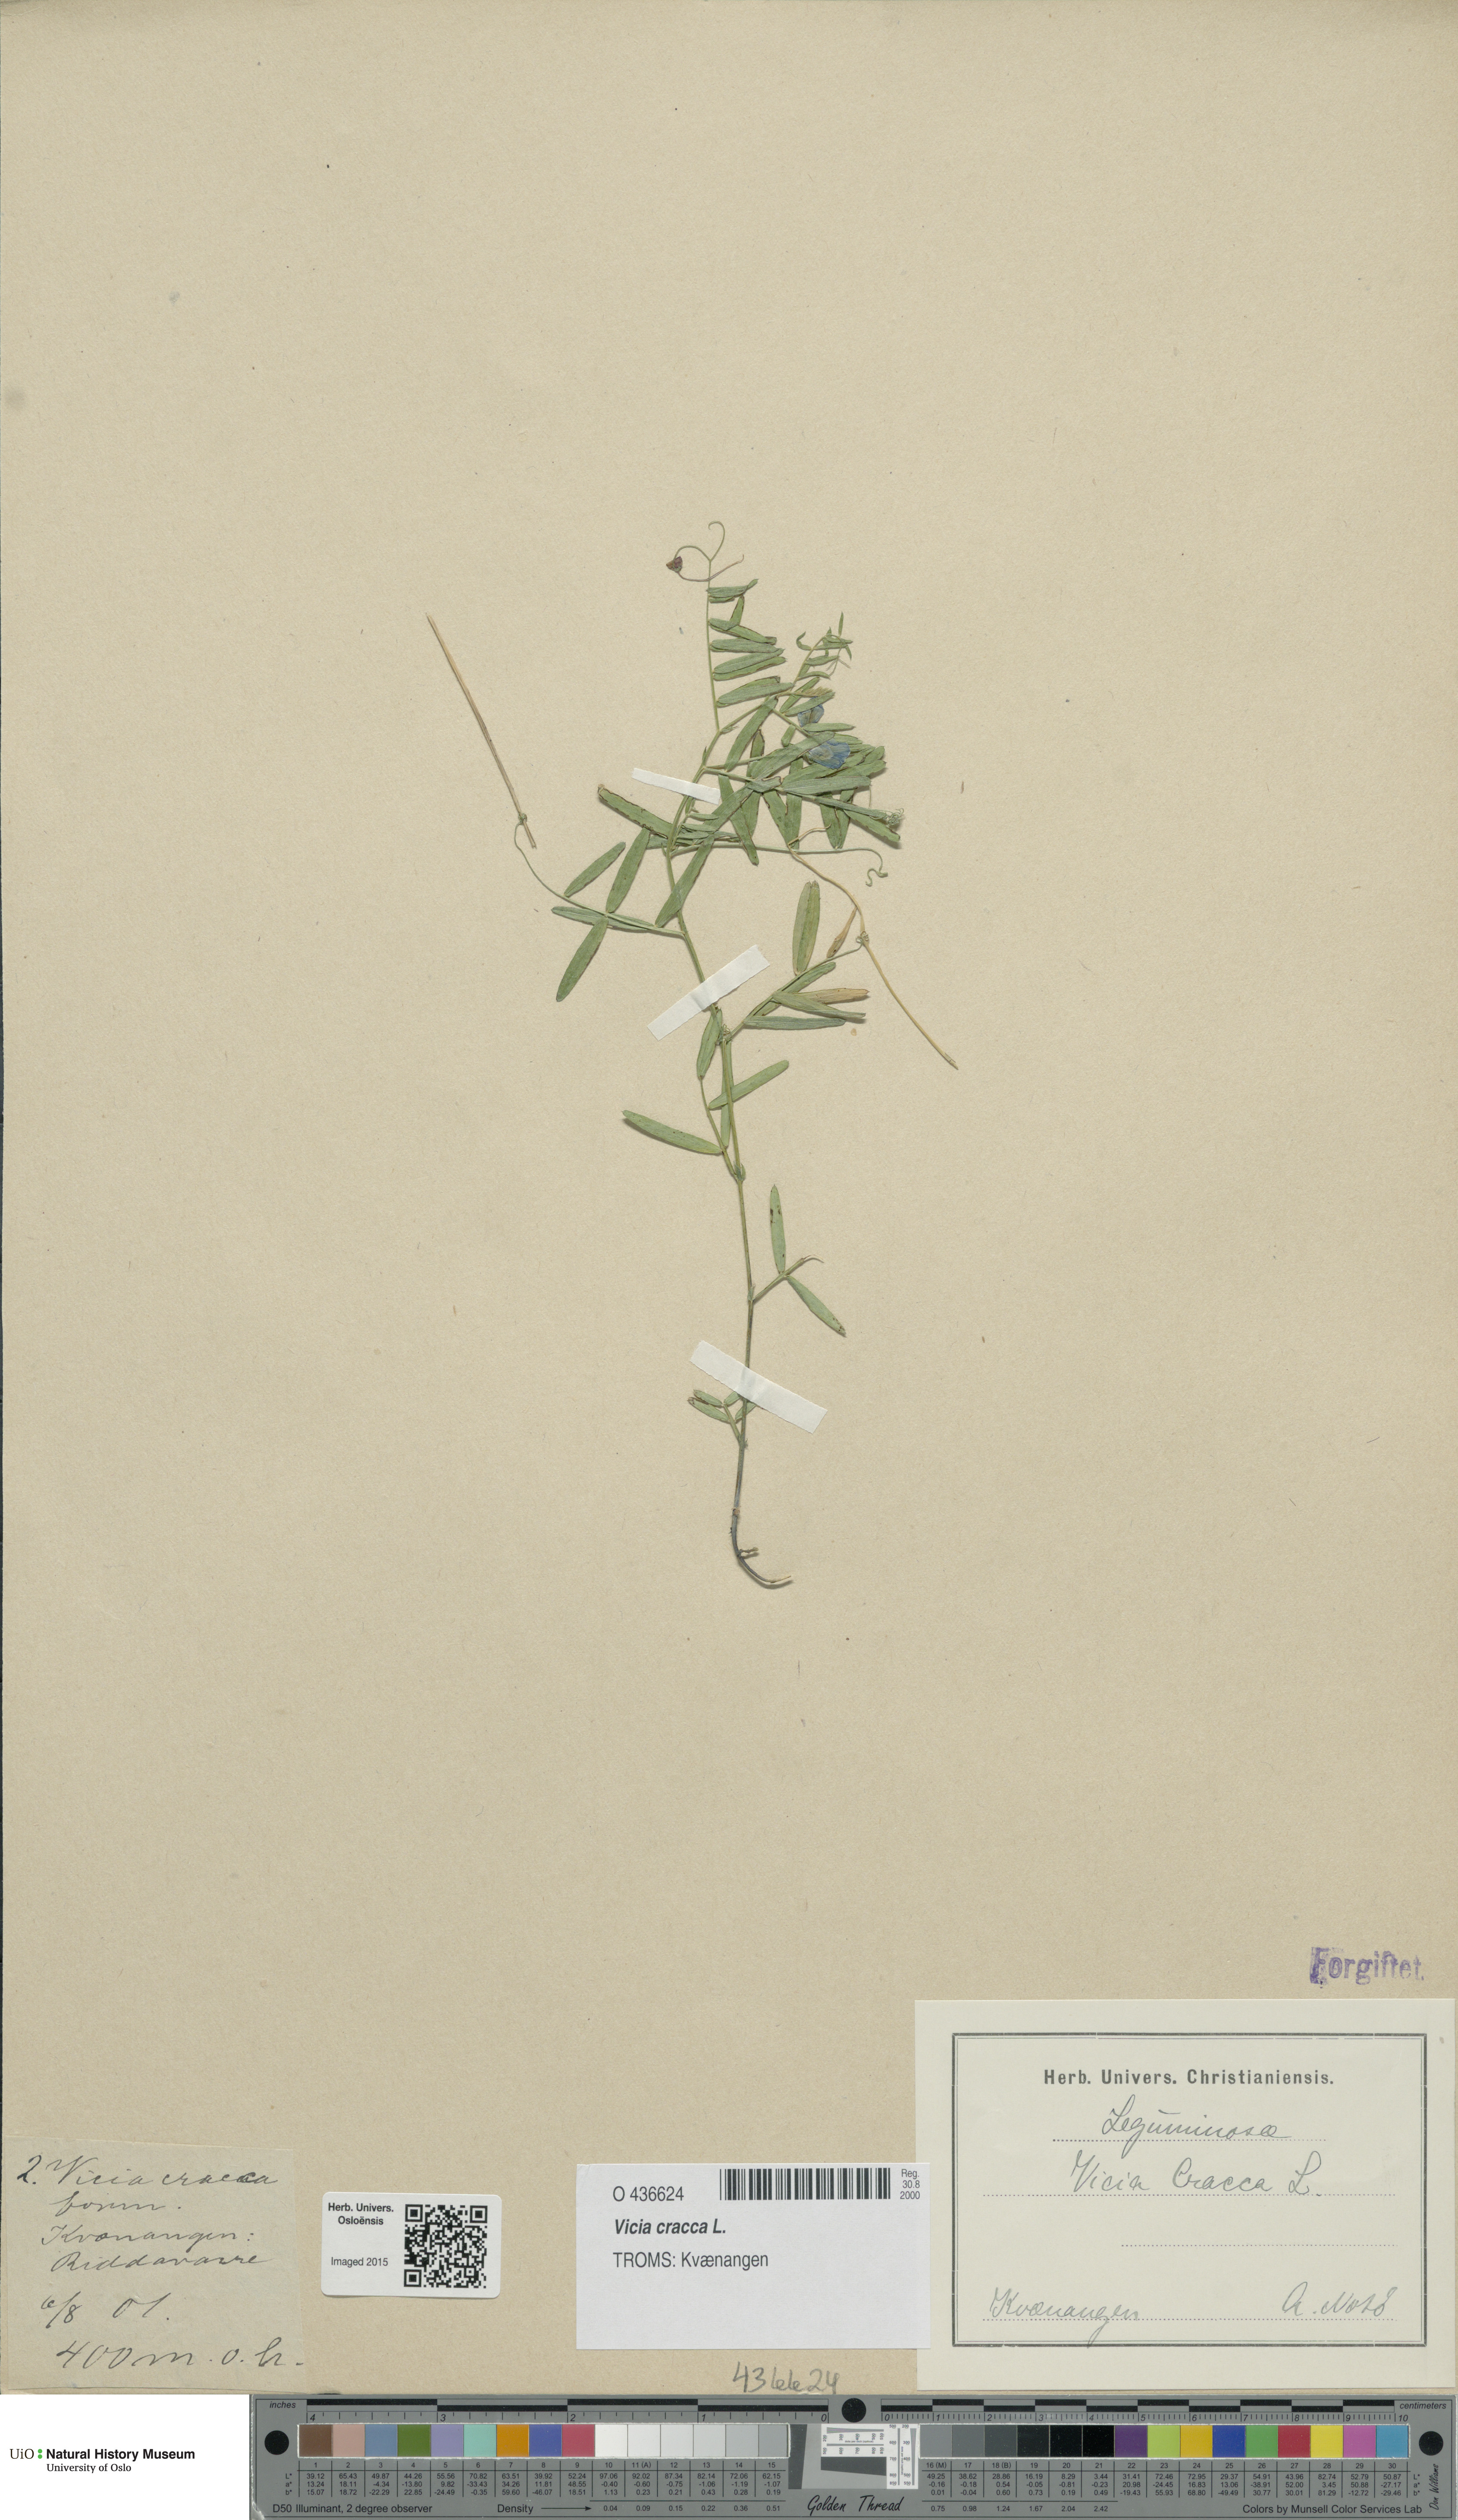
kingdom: Plantae
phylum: Tracheophyta
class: Magnoliopsida
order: Fabales
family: Fabaceae
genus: Vicia
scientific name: Vicia cracca
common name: Bird vetch
